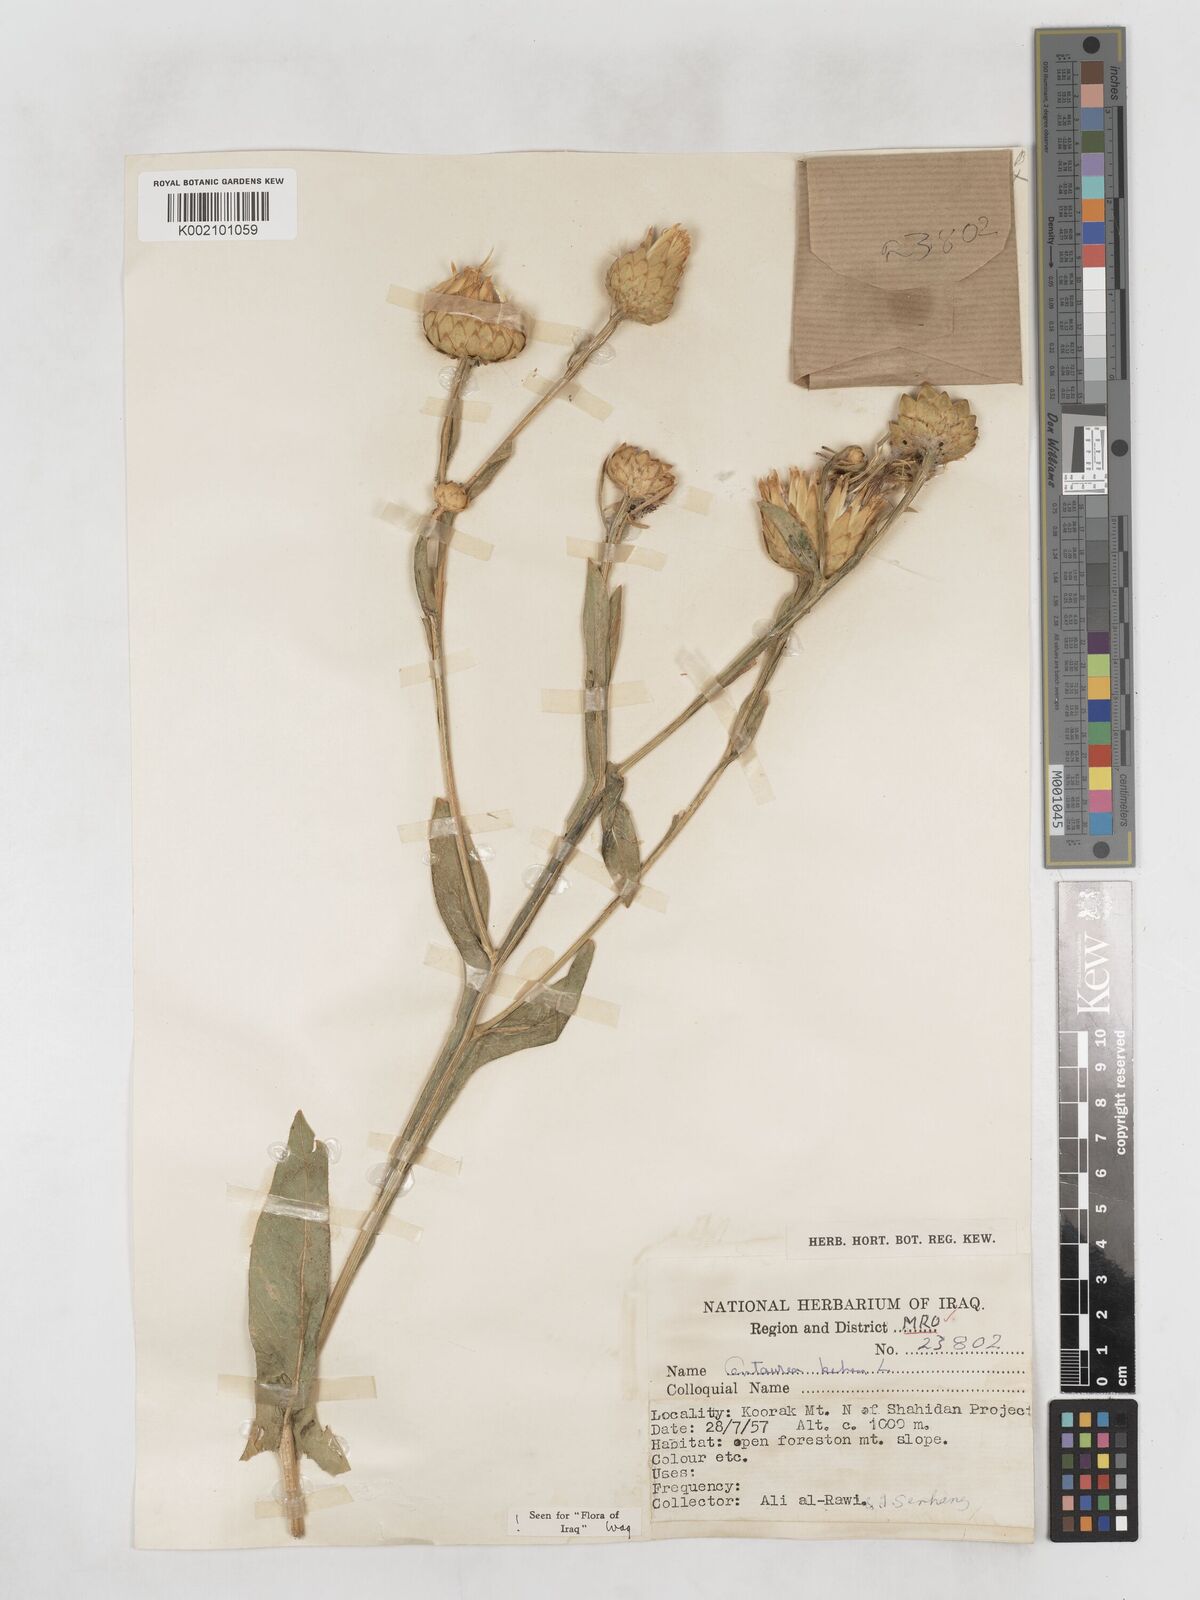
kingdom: Plantae
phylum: Tracheophyta
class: Magnoliopsida
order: Asterales
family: Asteraceae
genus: Centaurea
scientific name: Centaurea behen
